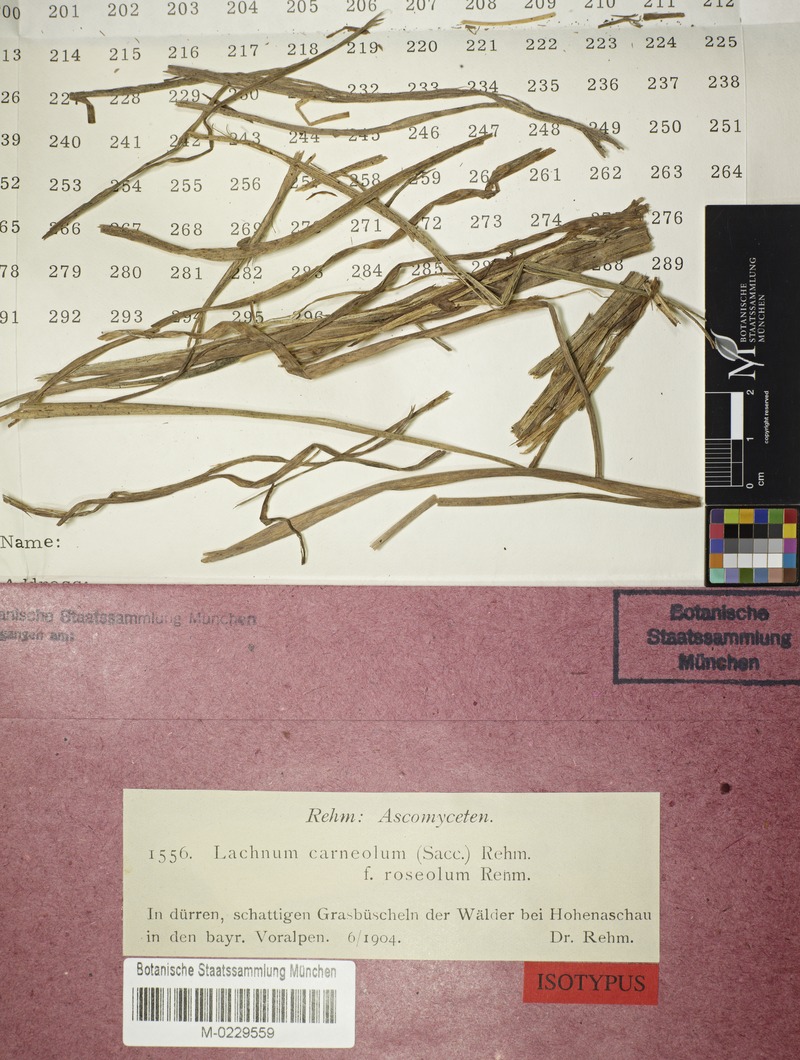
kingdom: Fungi
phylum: Ascomycota
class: Leotiomycetes
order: Helotiales
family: Lachnaceae
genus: Lachnum
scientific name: Lachnum carneolum
